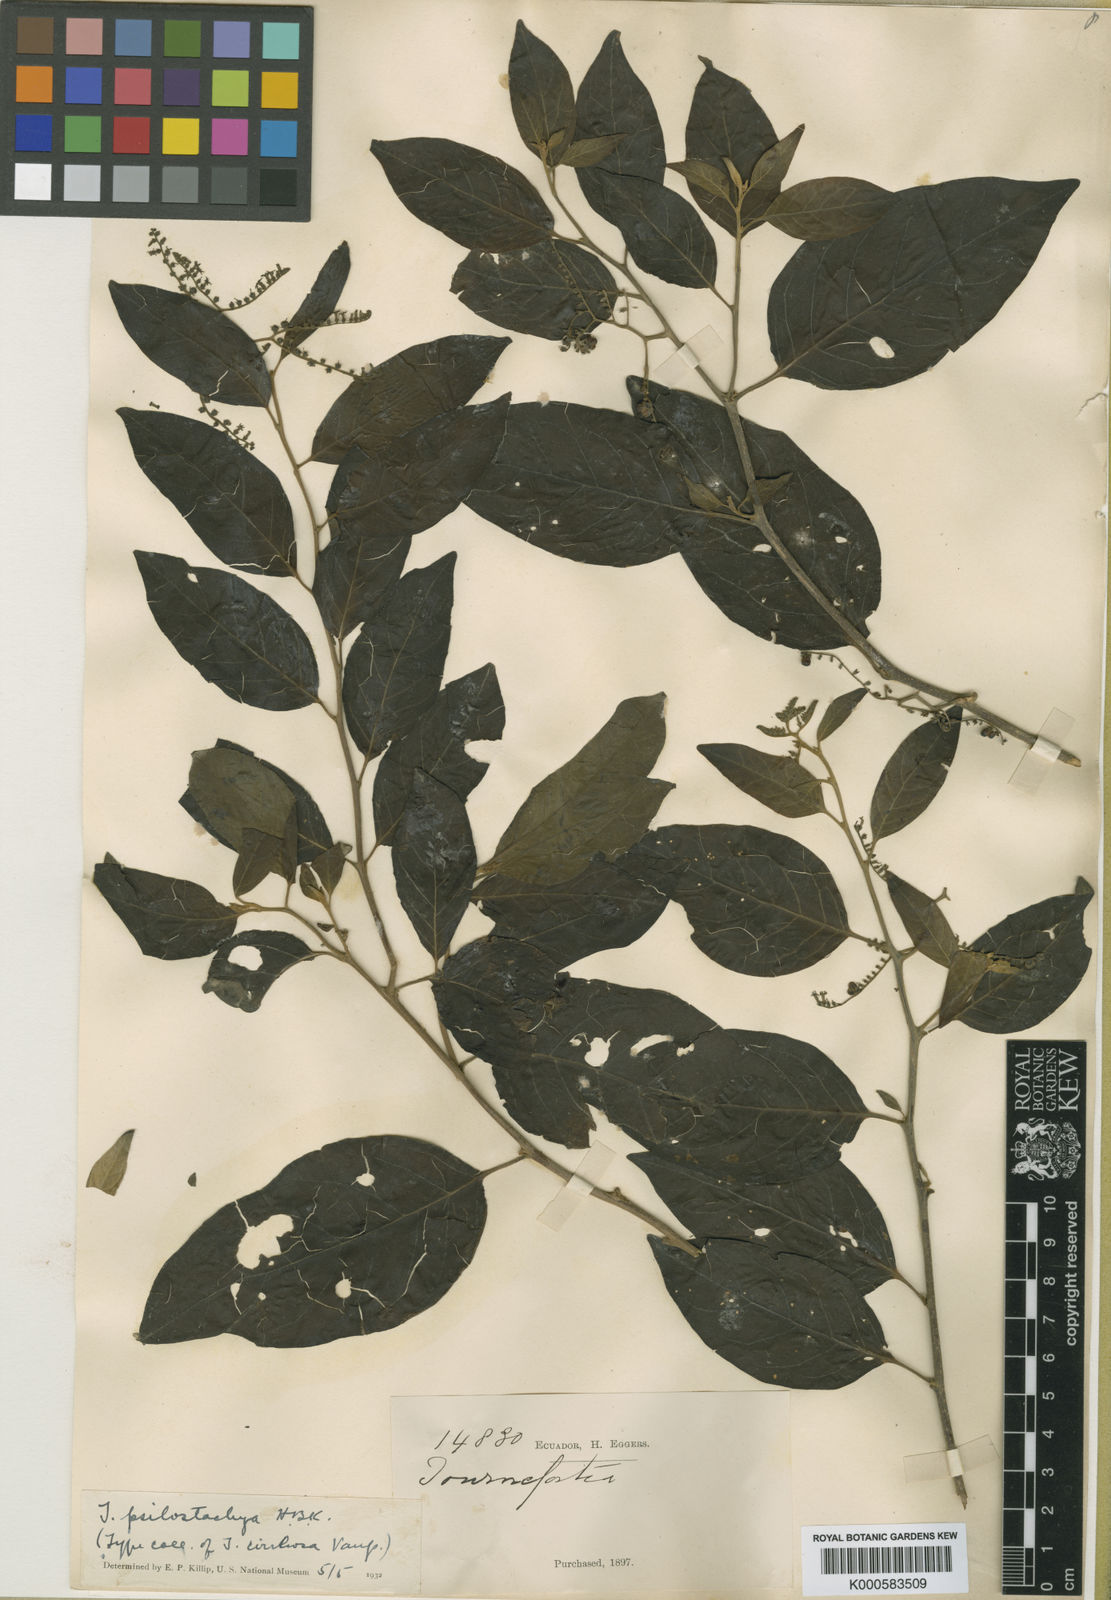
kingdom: Plantae
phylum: Tracheophyta
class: Magnoliopsida
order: Boraginales
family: Heliotropiaceae
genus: Myriopus
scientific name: Myriopus psilostachya
